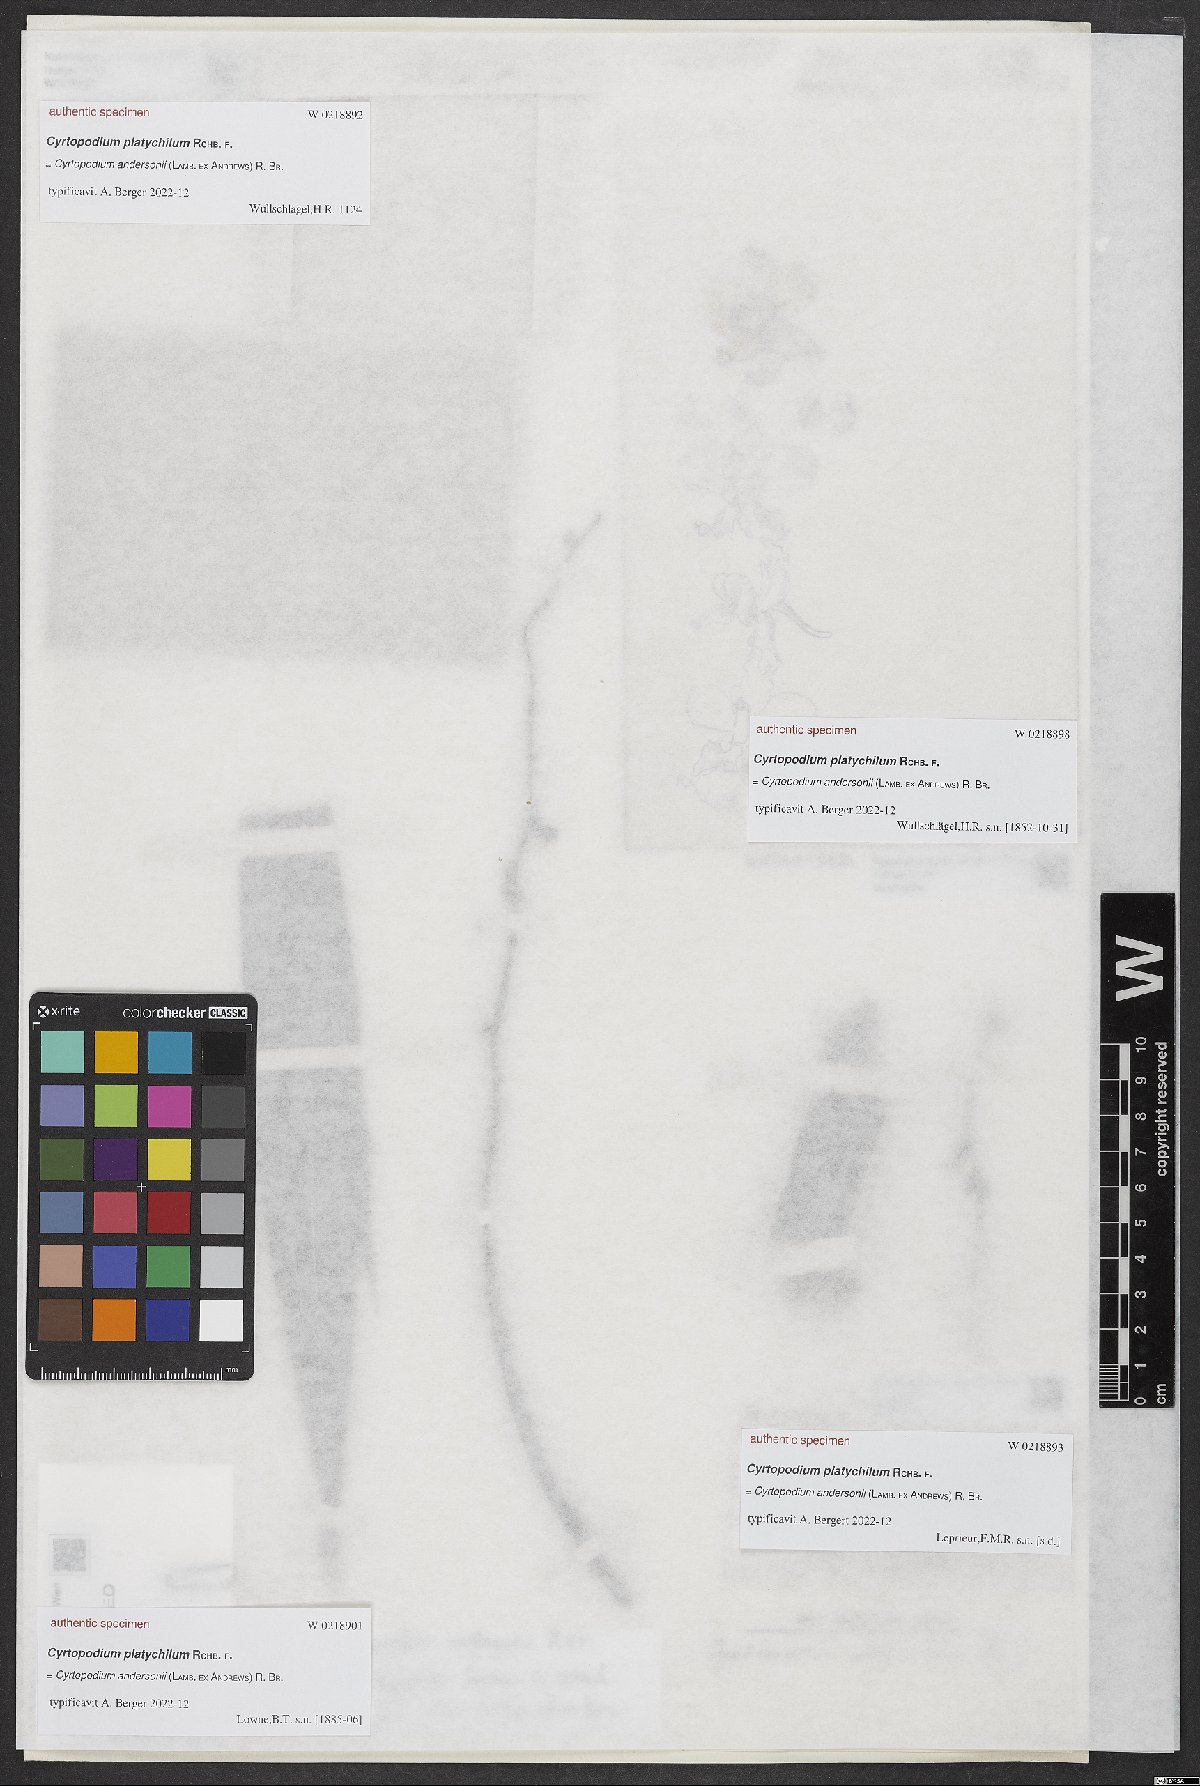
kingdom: Plantae
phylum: Tracheophyta
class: Liliopsida
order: Asparagales
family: Orchidaceae
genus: Cyrtopodium
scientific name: Cyrtopodium
